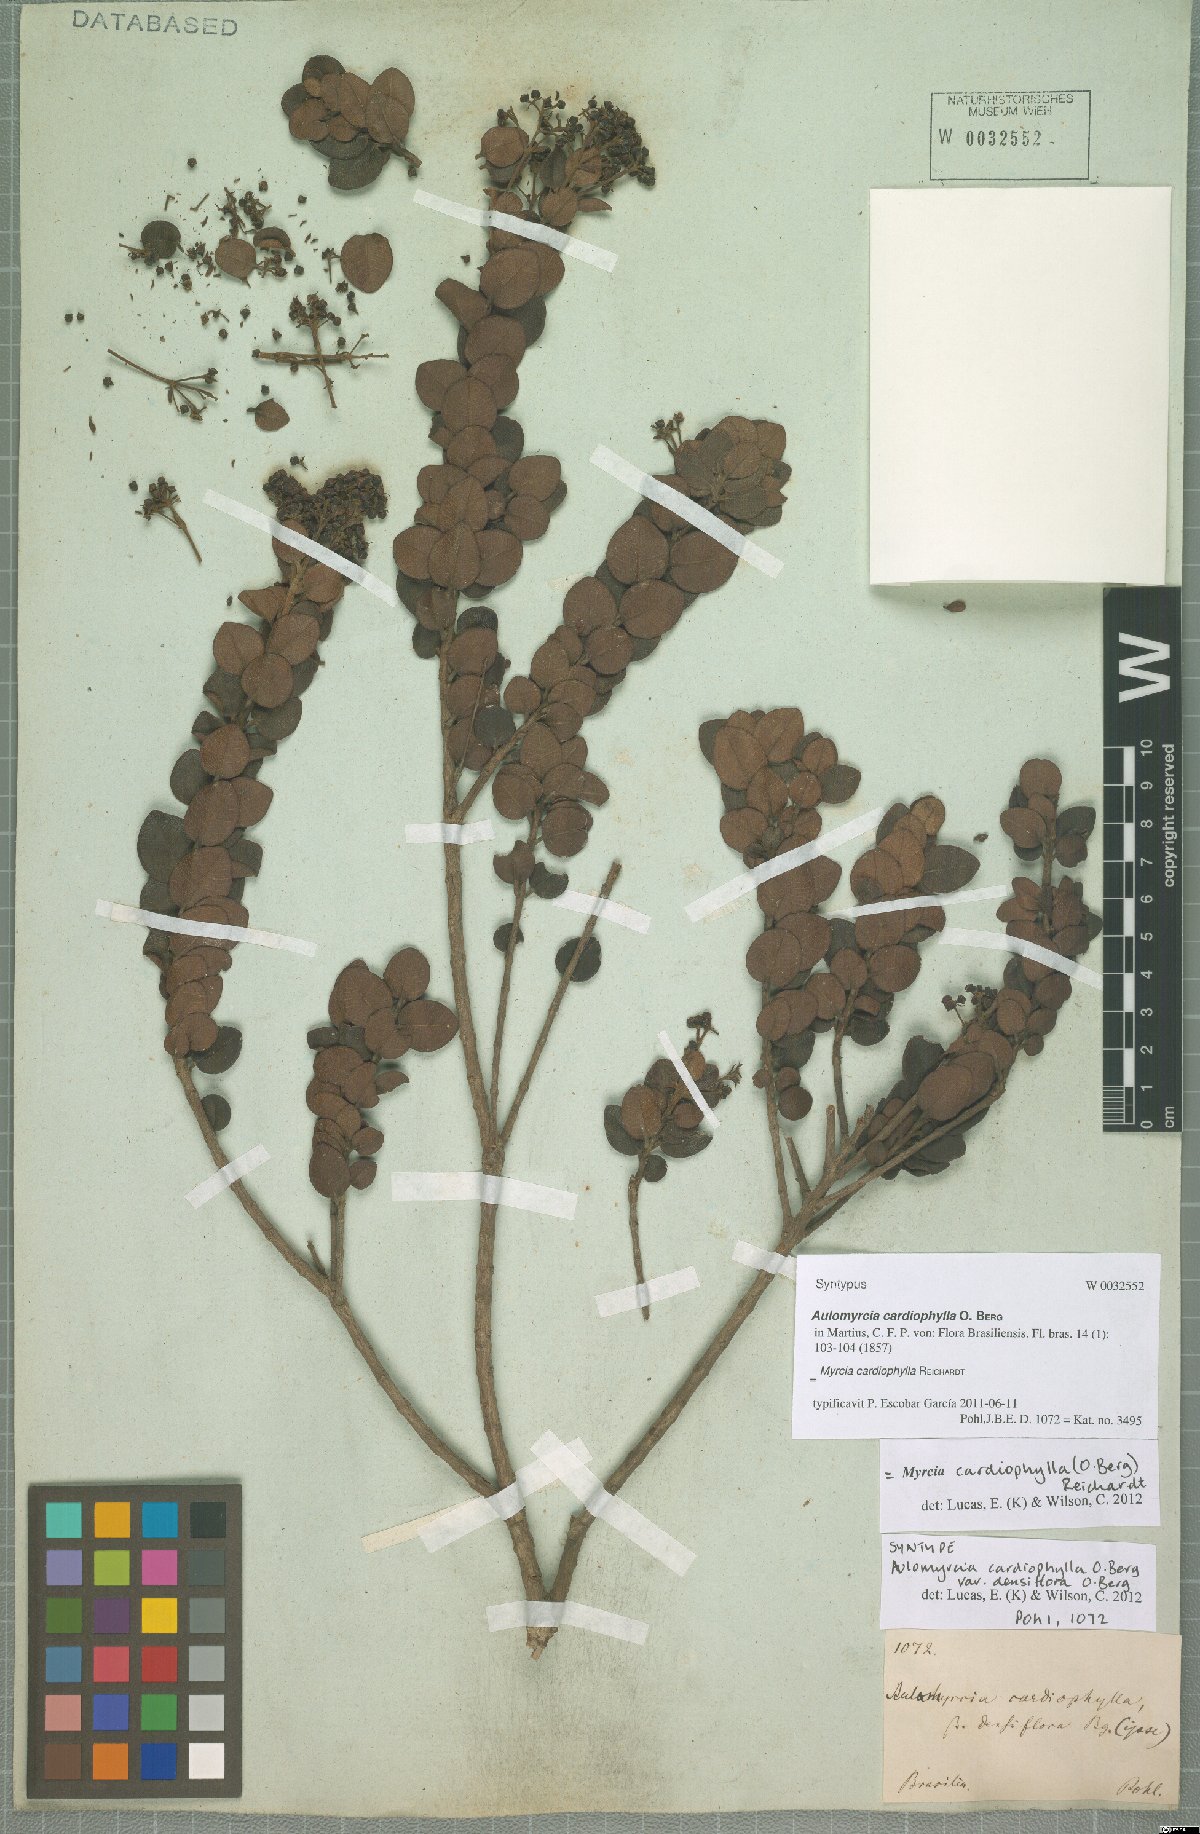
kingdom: Plantae
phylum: Tracheophyta
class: Magnoliopsida
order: Myrtales
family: Myrtaceae
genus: Myrcia
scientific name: Myrcia altera
